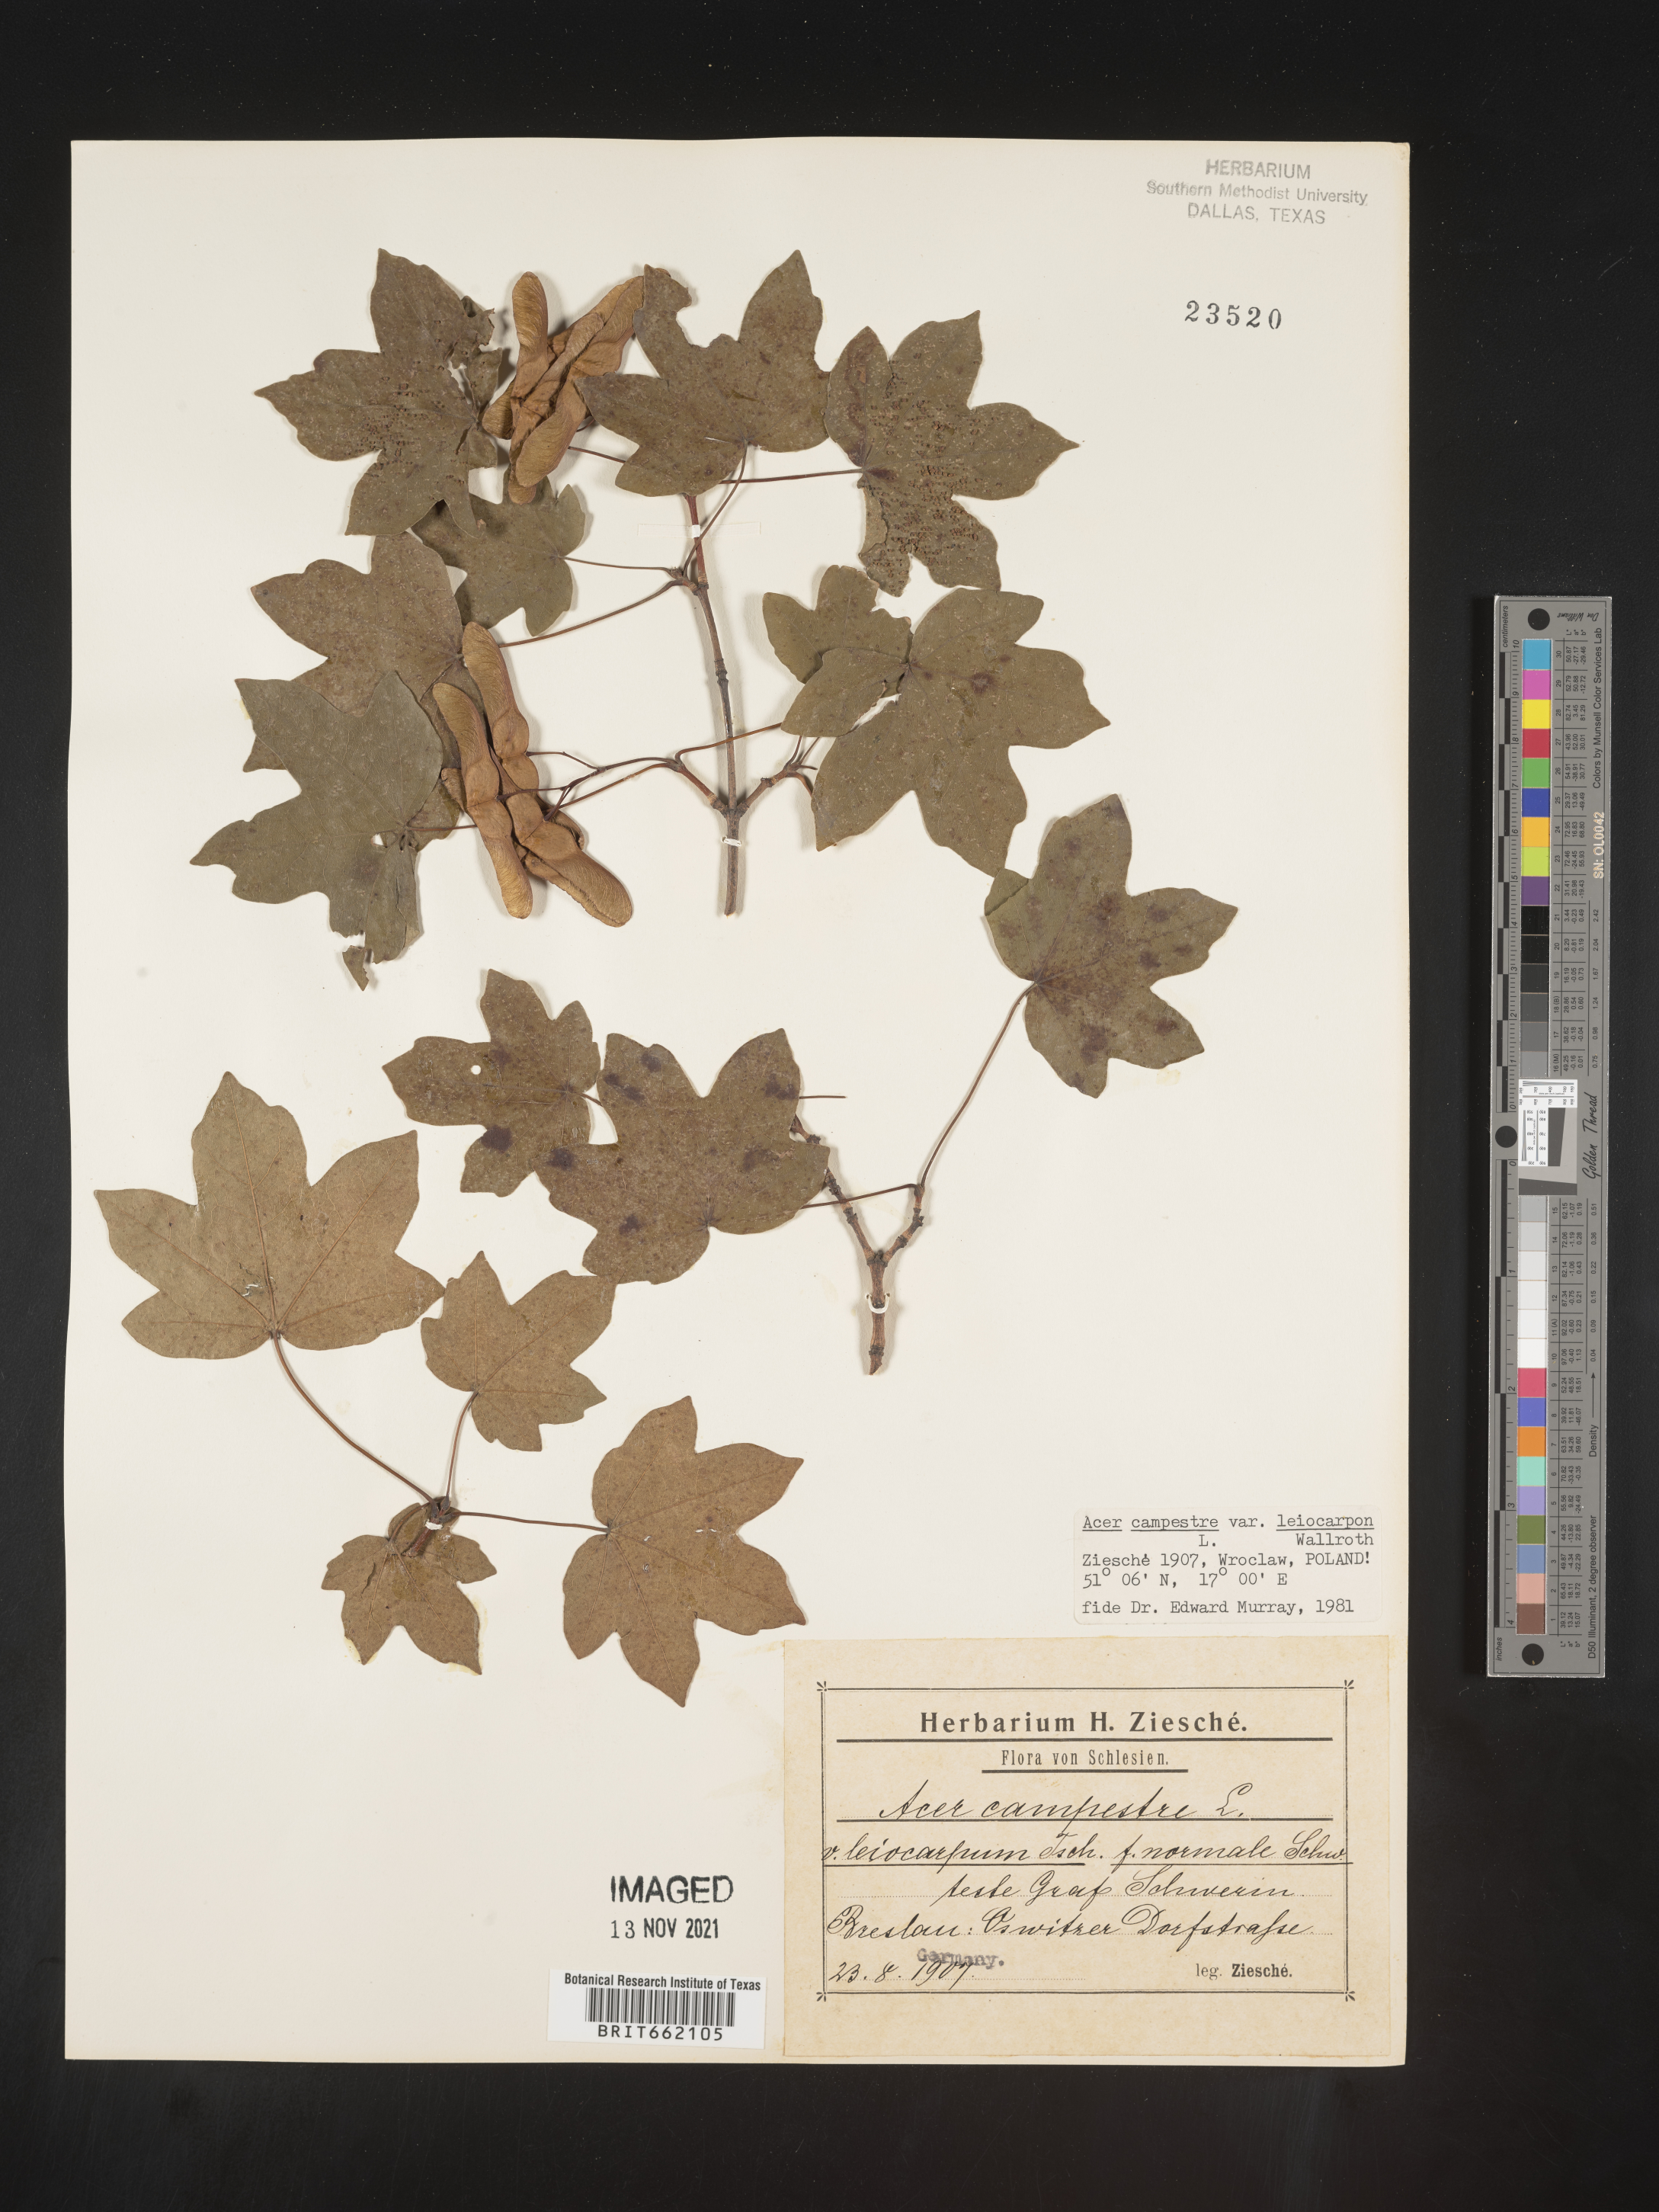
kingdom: Plantae
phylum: Tracheophyta
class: Magnoliopsida
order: Sapindales
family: Sapindaceae
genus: Acer
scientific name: Acer
